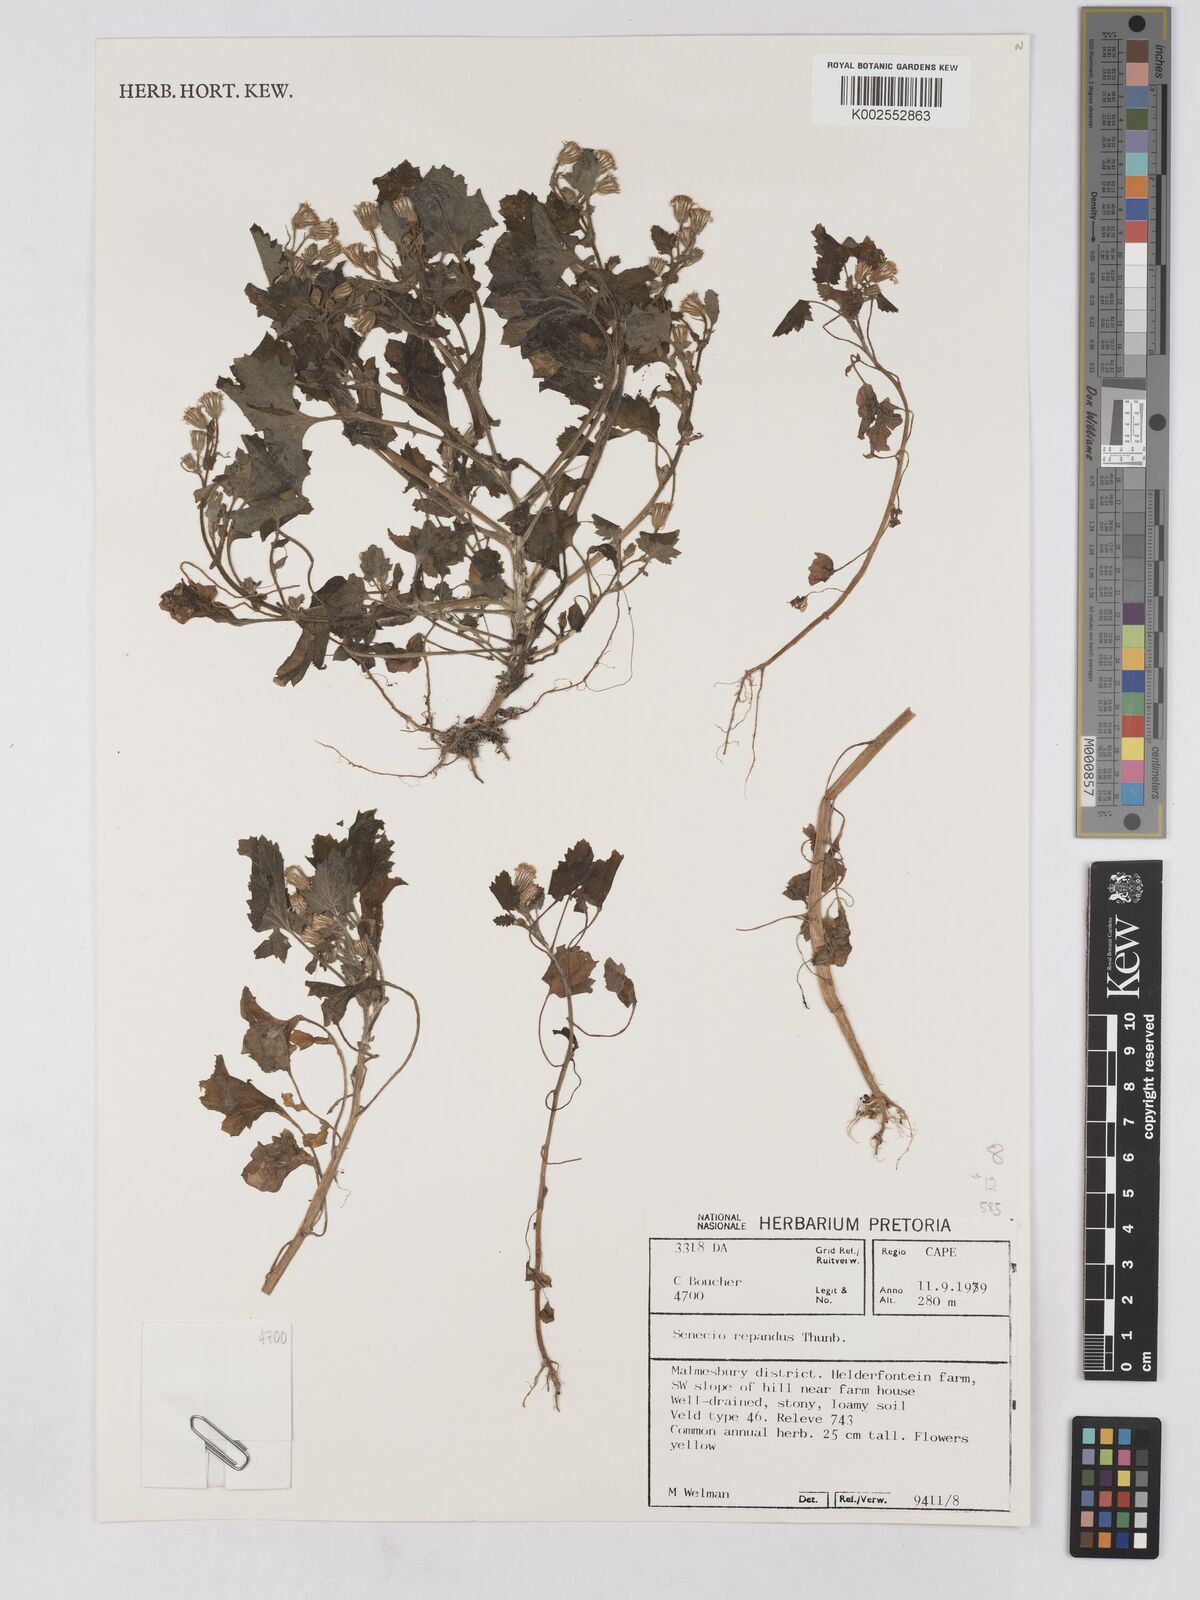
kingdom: Plantae
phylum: Tracheophyta
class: Magnoliopsida
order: Asterales
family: Asteraceae
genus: Senecio
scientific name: Senecio repandus
